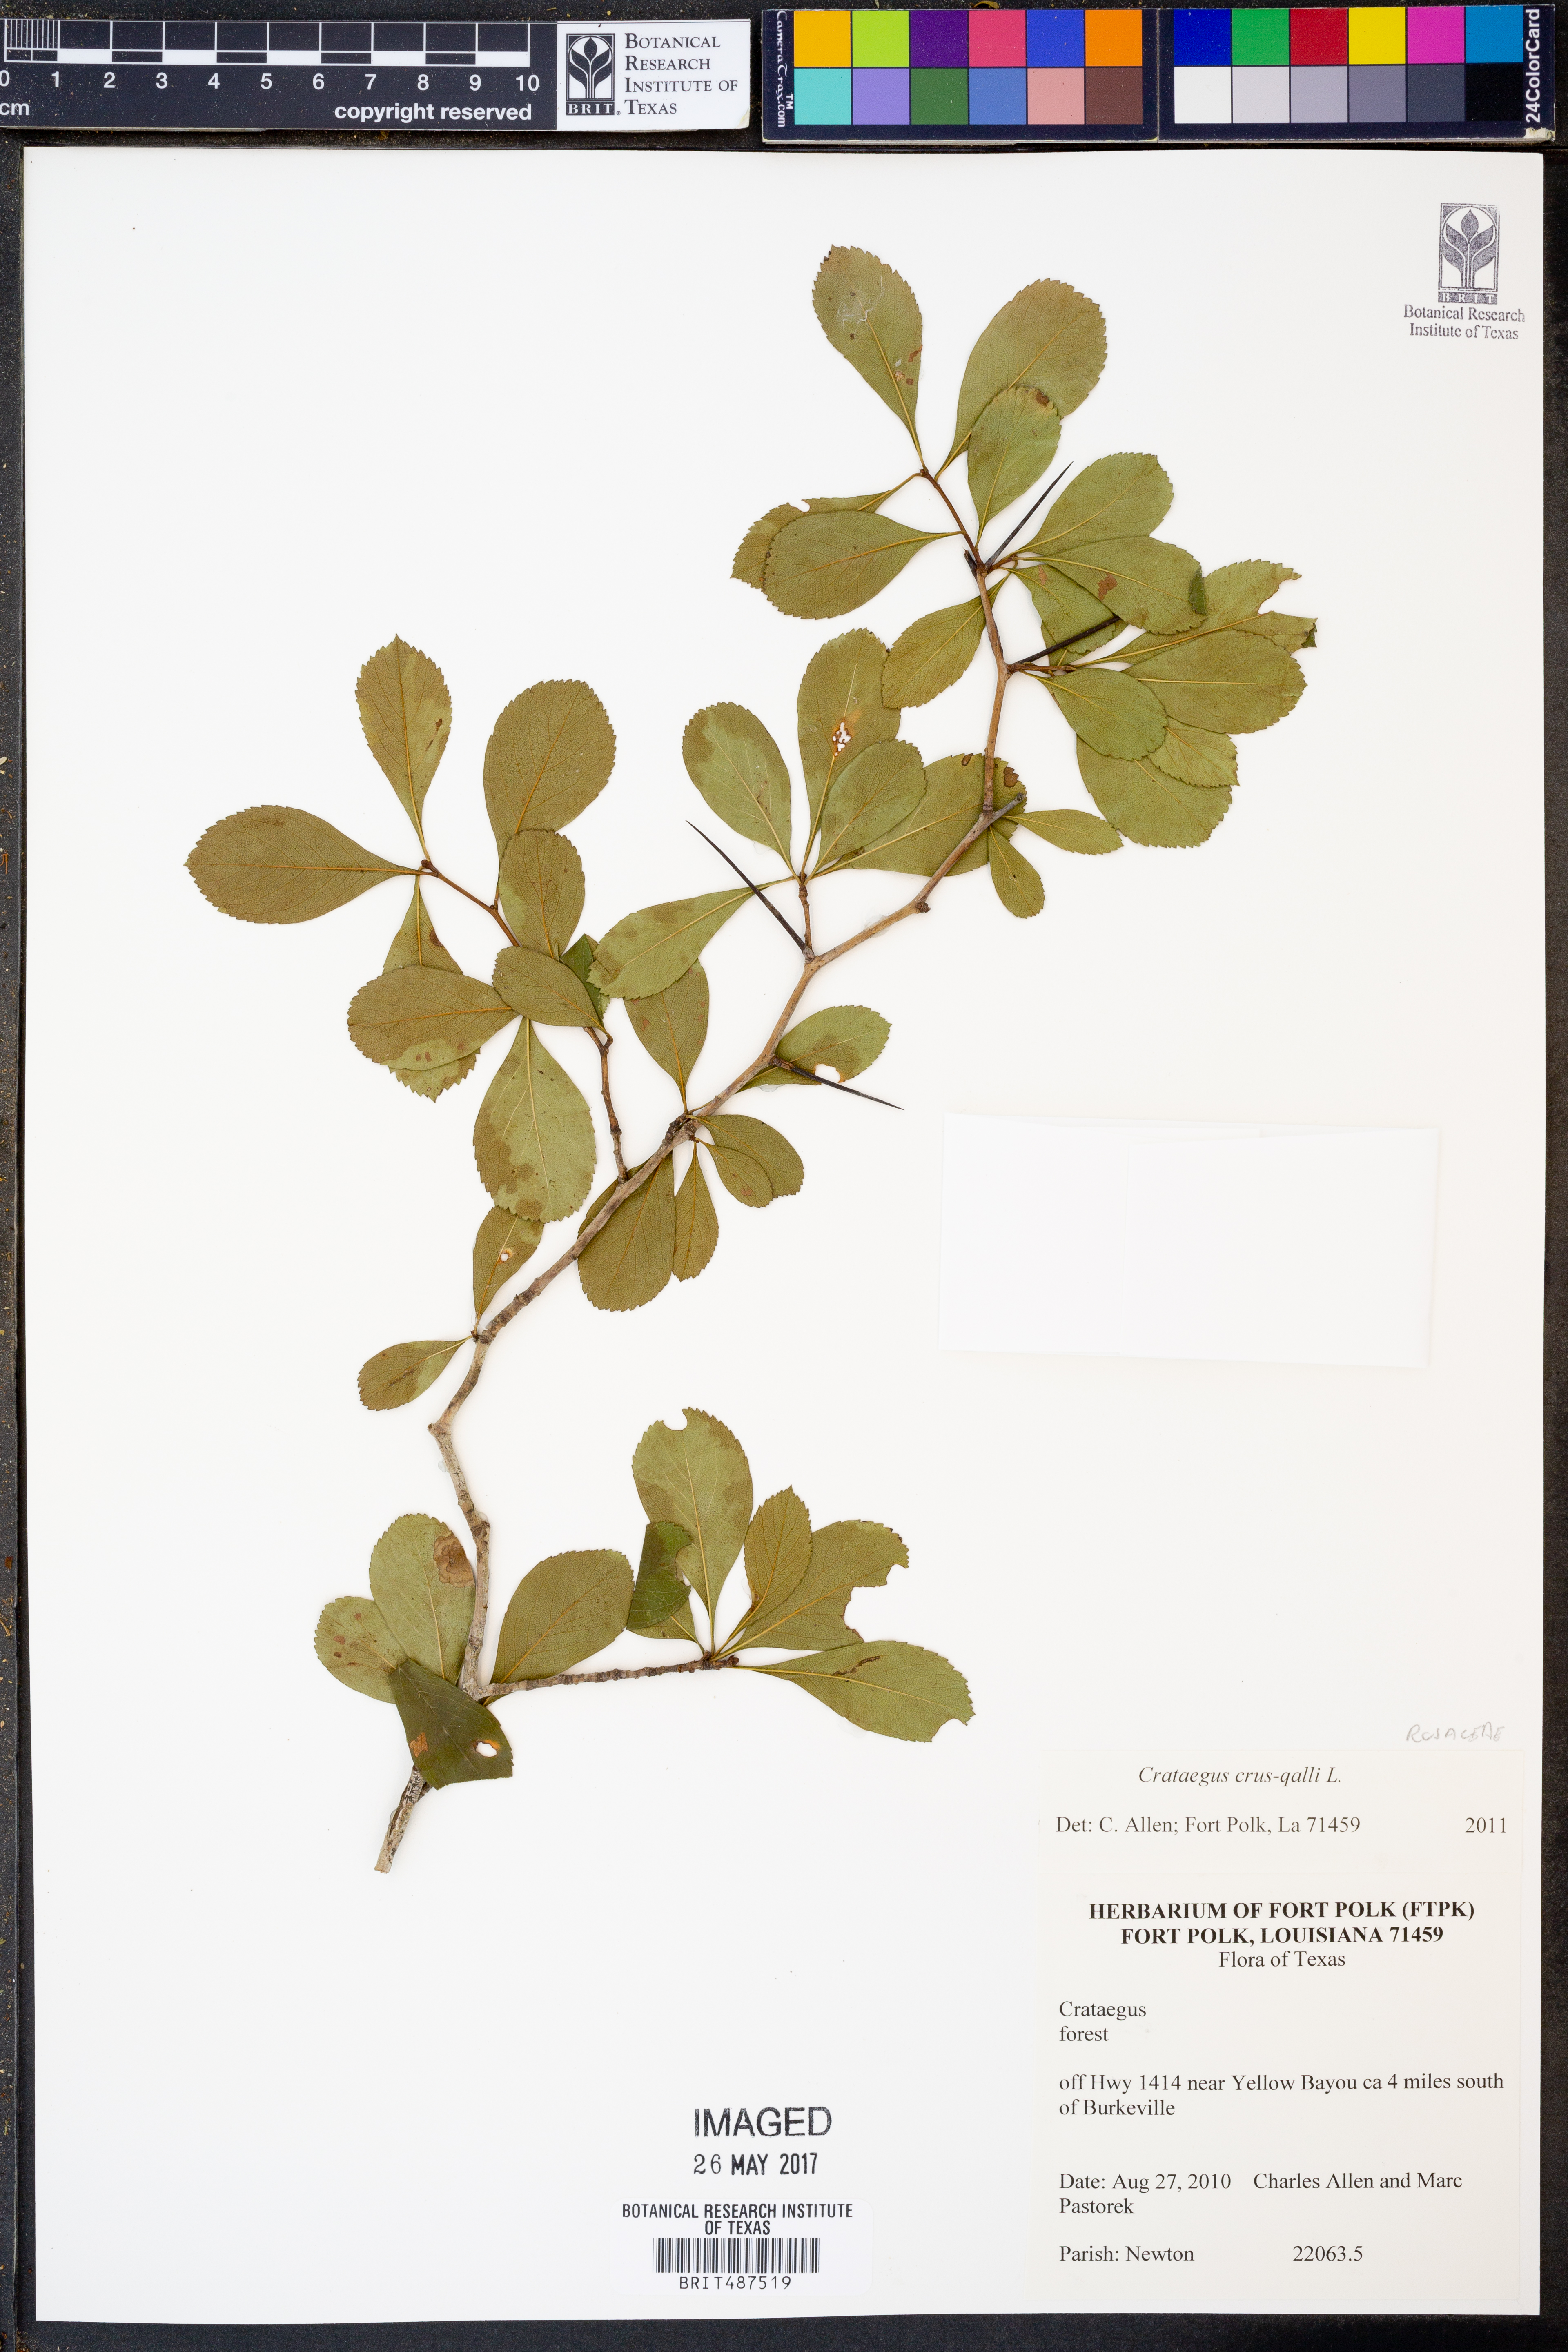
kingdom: Plantae
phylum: Tracheophyta
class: Magnoliopsida
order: Rosales
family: Rosaceae
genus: Crataegus
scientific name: Crataegus crus-galli
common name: Cockspurthorn
